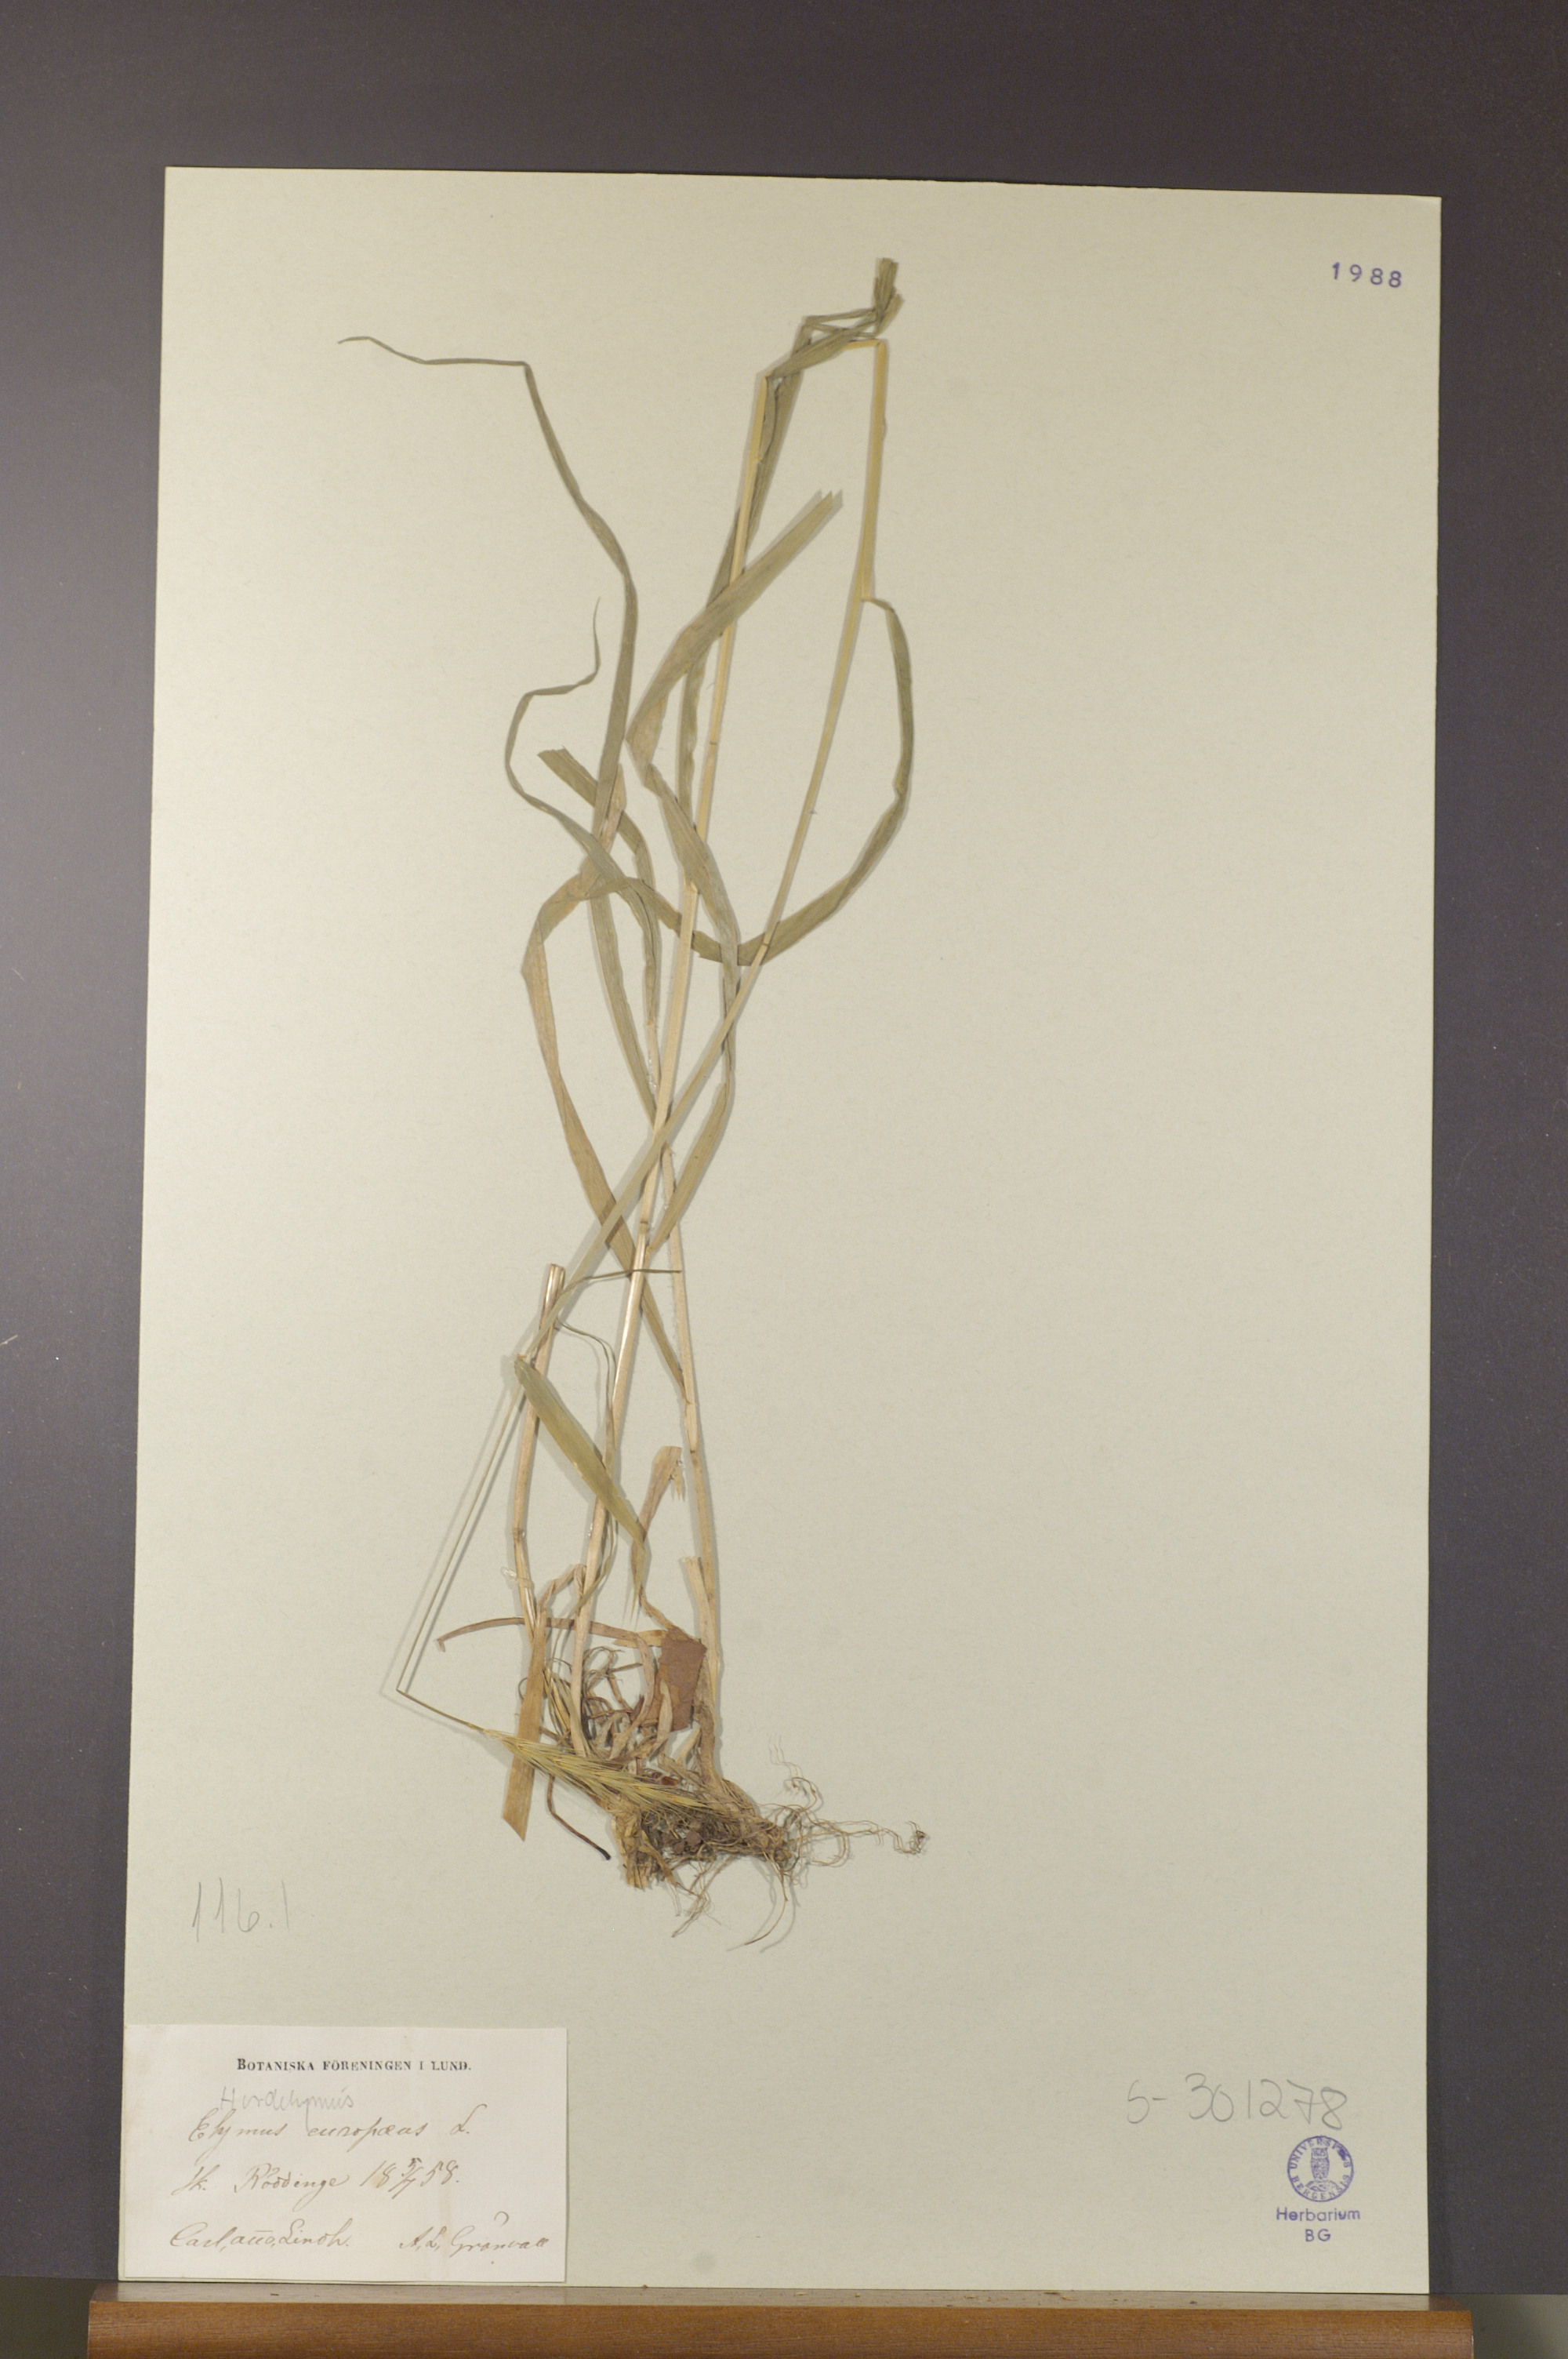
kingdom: Plantae
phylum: Tracheophyta
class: Liliopsida
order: Poales
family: Poaceae
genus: Hordelymus
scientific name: Hordelymus europaeus
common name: Wood-barley
